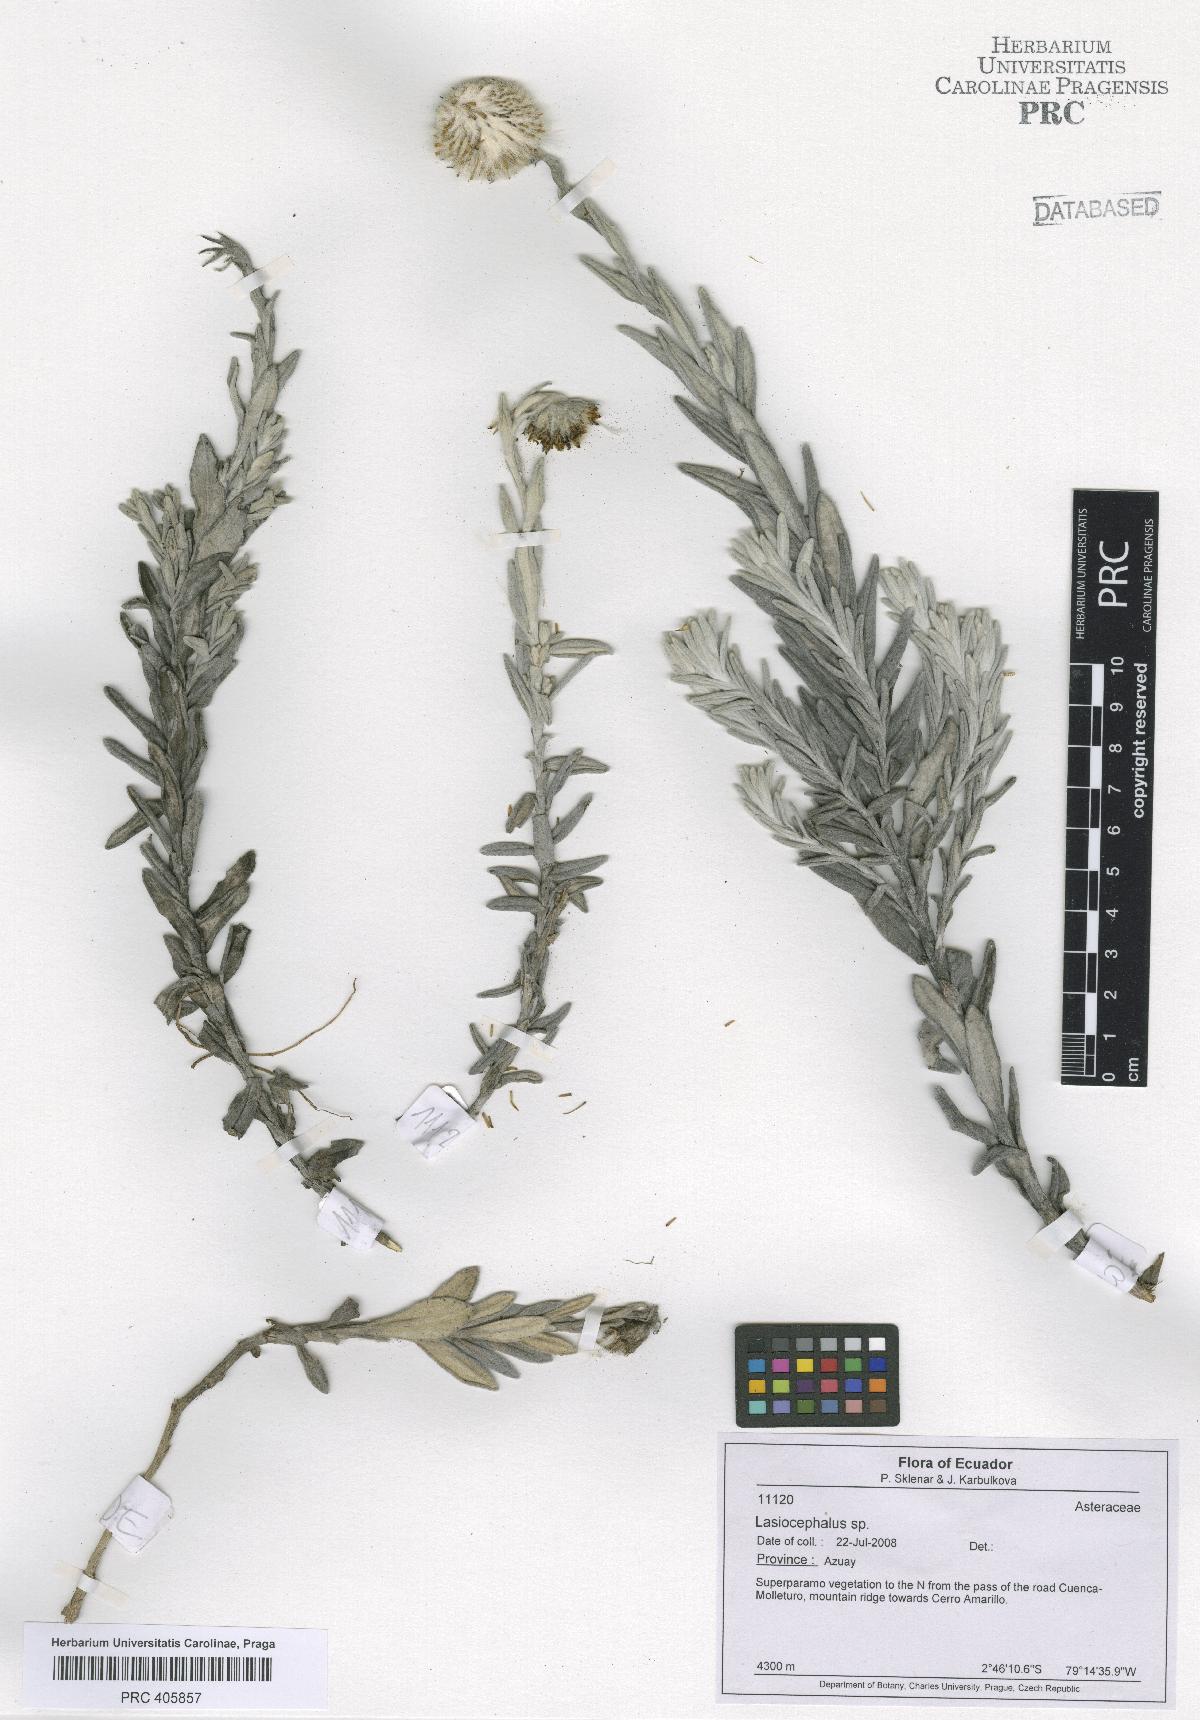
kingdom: Plantae
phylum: Tracheophyta
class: Magnoliopsida
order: Asterales
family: Asteraceae
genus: Lasiocephalus
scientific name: Lasiocephalus
